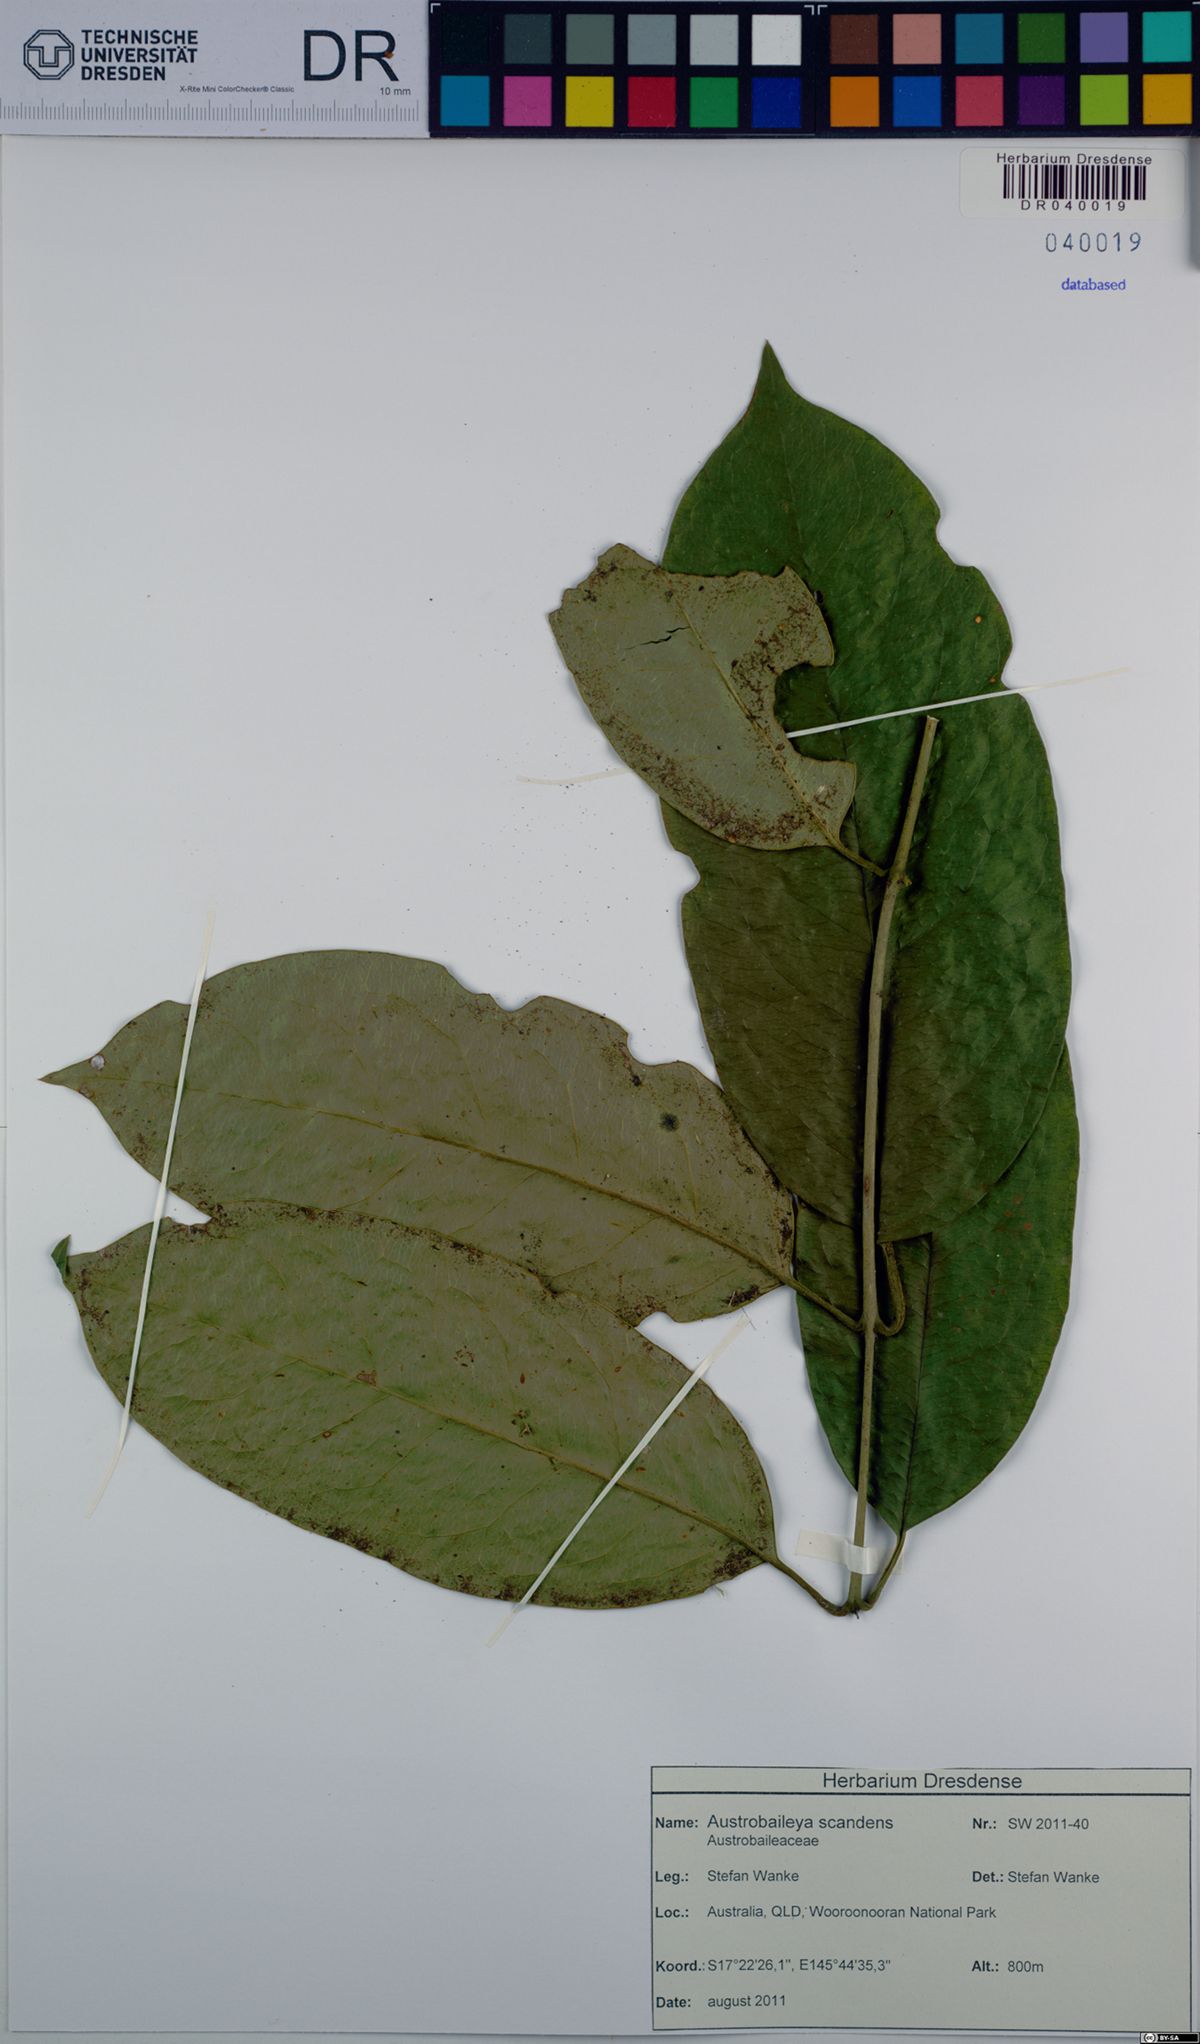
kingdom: Plantae
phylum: Tracheophyta
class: Magnoliopsida
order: Austrobaileyales
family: Austrobaileyaceae
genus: Austrobaileya
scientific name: Austrobaileya scandens
